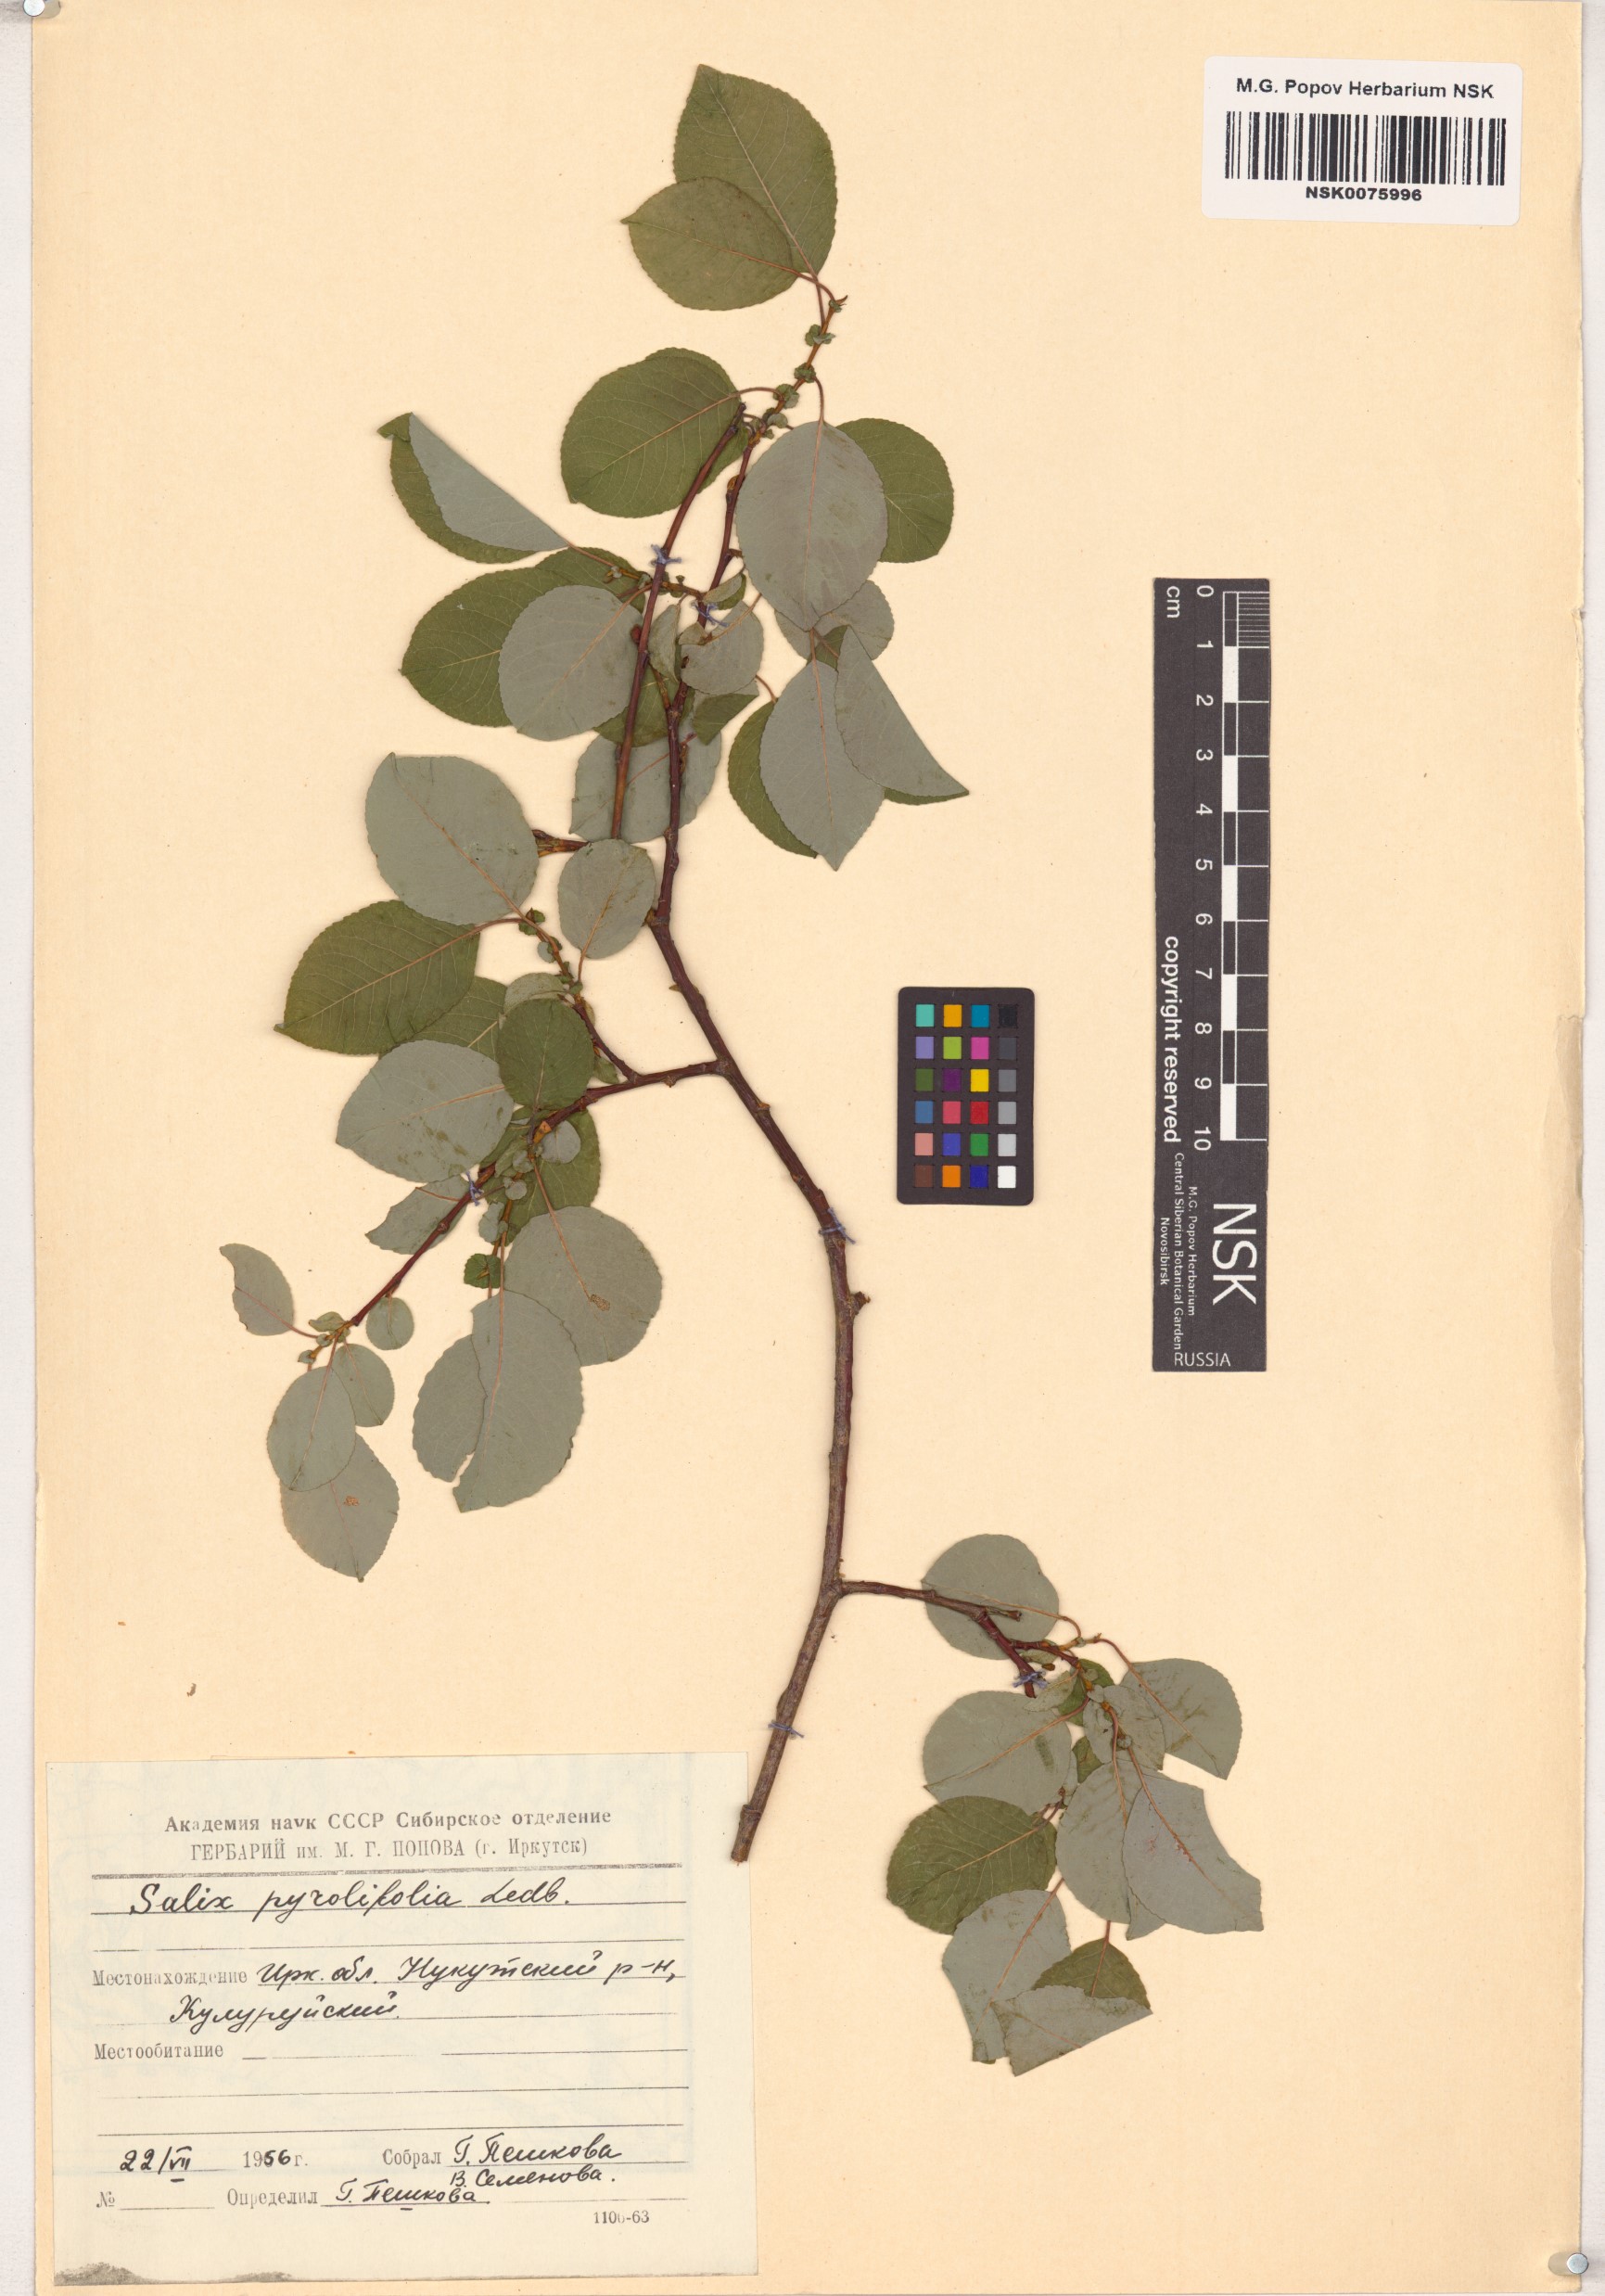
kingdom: Plantae
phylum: Tracheophyta
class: Magnoliopsida
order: Malpighiales
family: Salicaceae
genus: Salix
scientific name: Salix pyrolifolia
